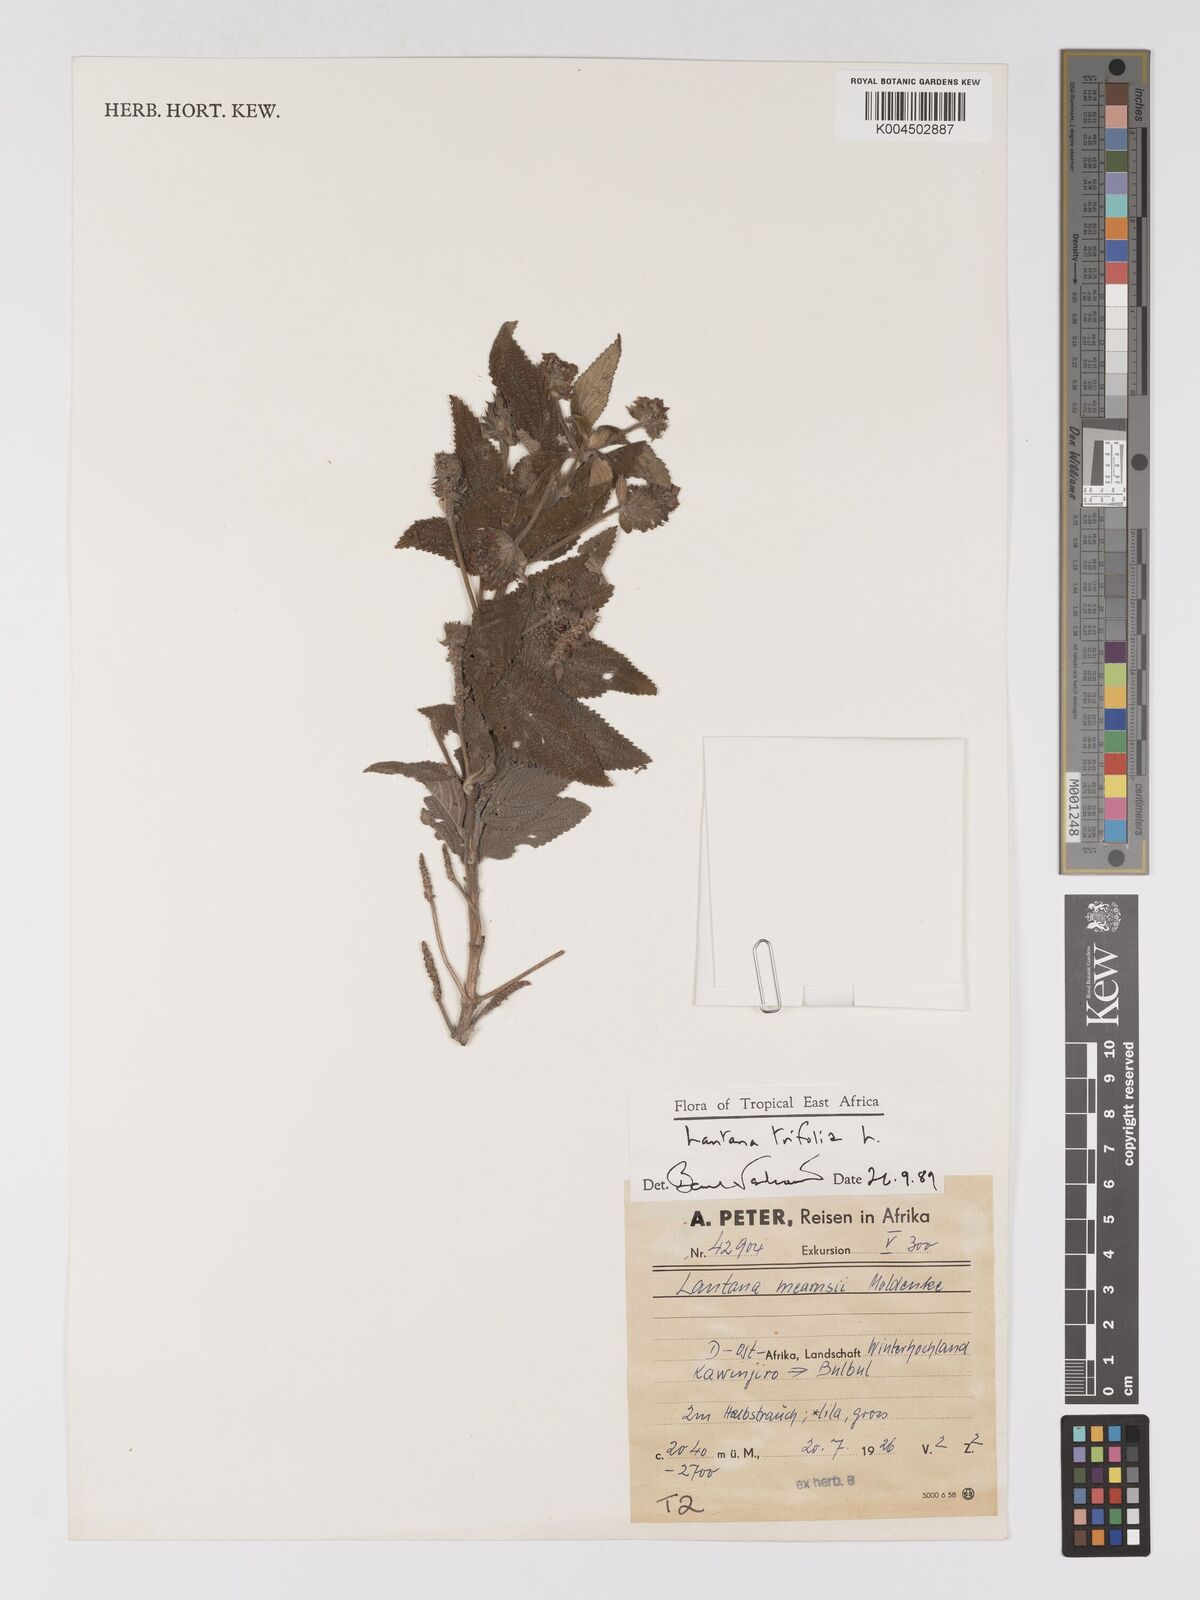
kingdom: Plantae
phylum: Tracheophyta
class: Magnoliopsida
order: Lamiales
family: Verbenaceae
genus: Lantana
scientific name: Lantana trifolia
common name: Sweet-sage
